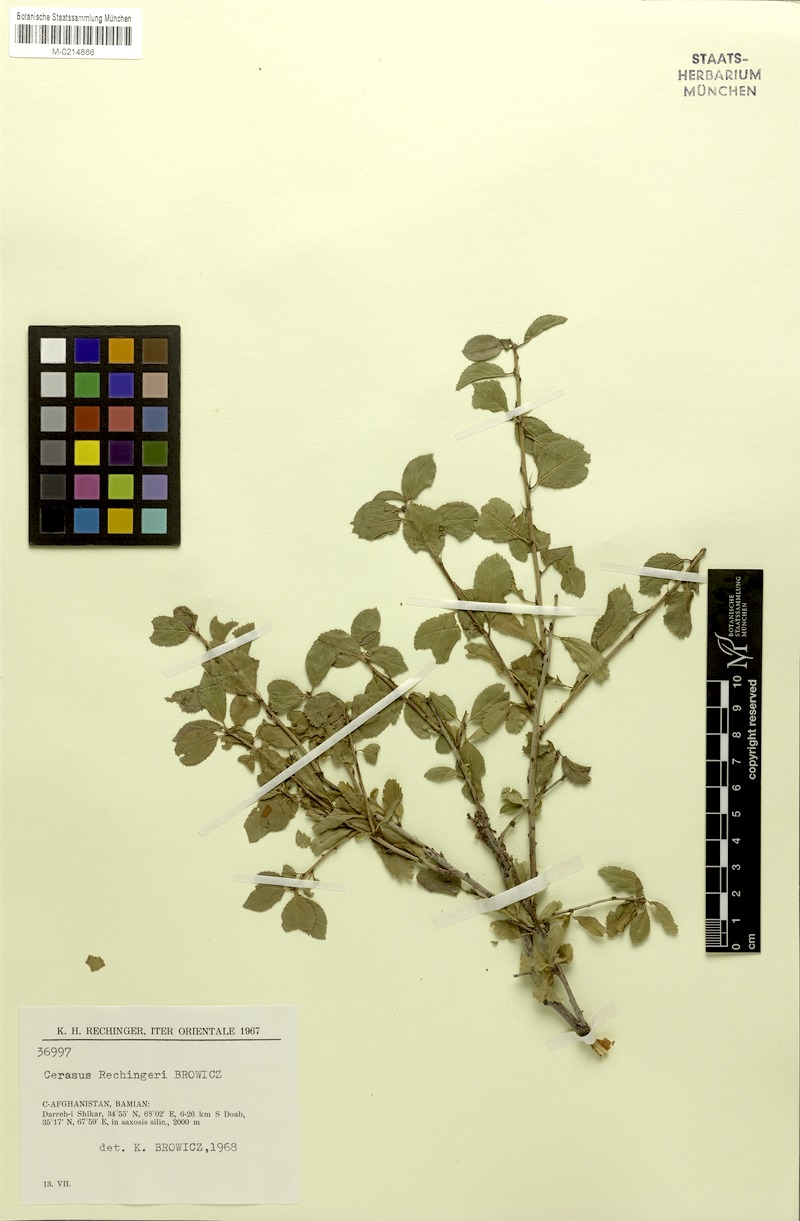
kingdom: Plantae
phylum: Tracheophyta
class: Magnoliopsida
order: Rosales
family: Rosaceae
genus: Prunus
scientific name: Prunus rechingeri
